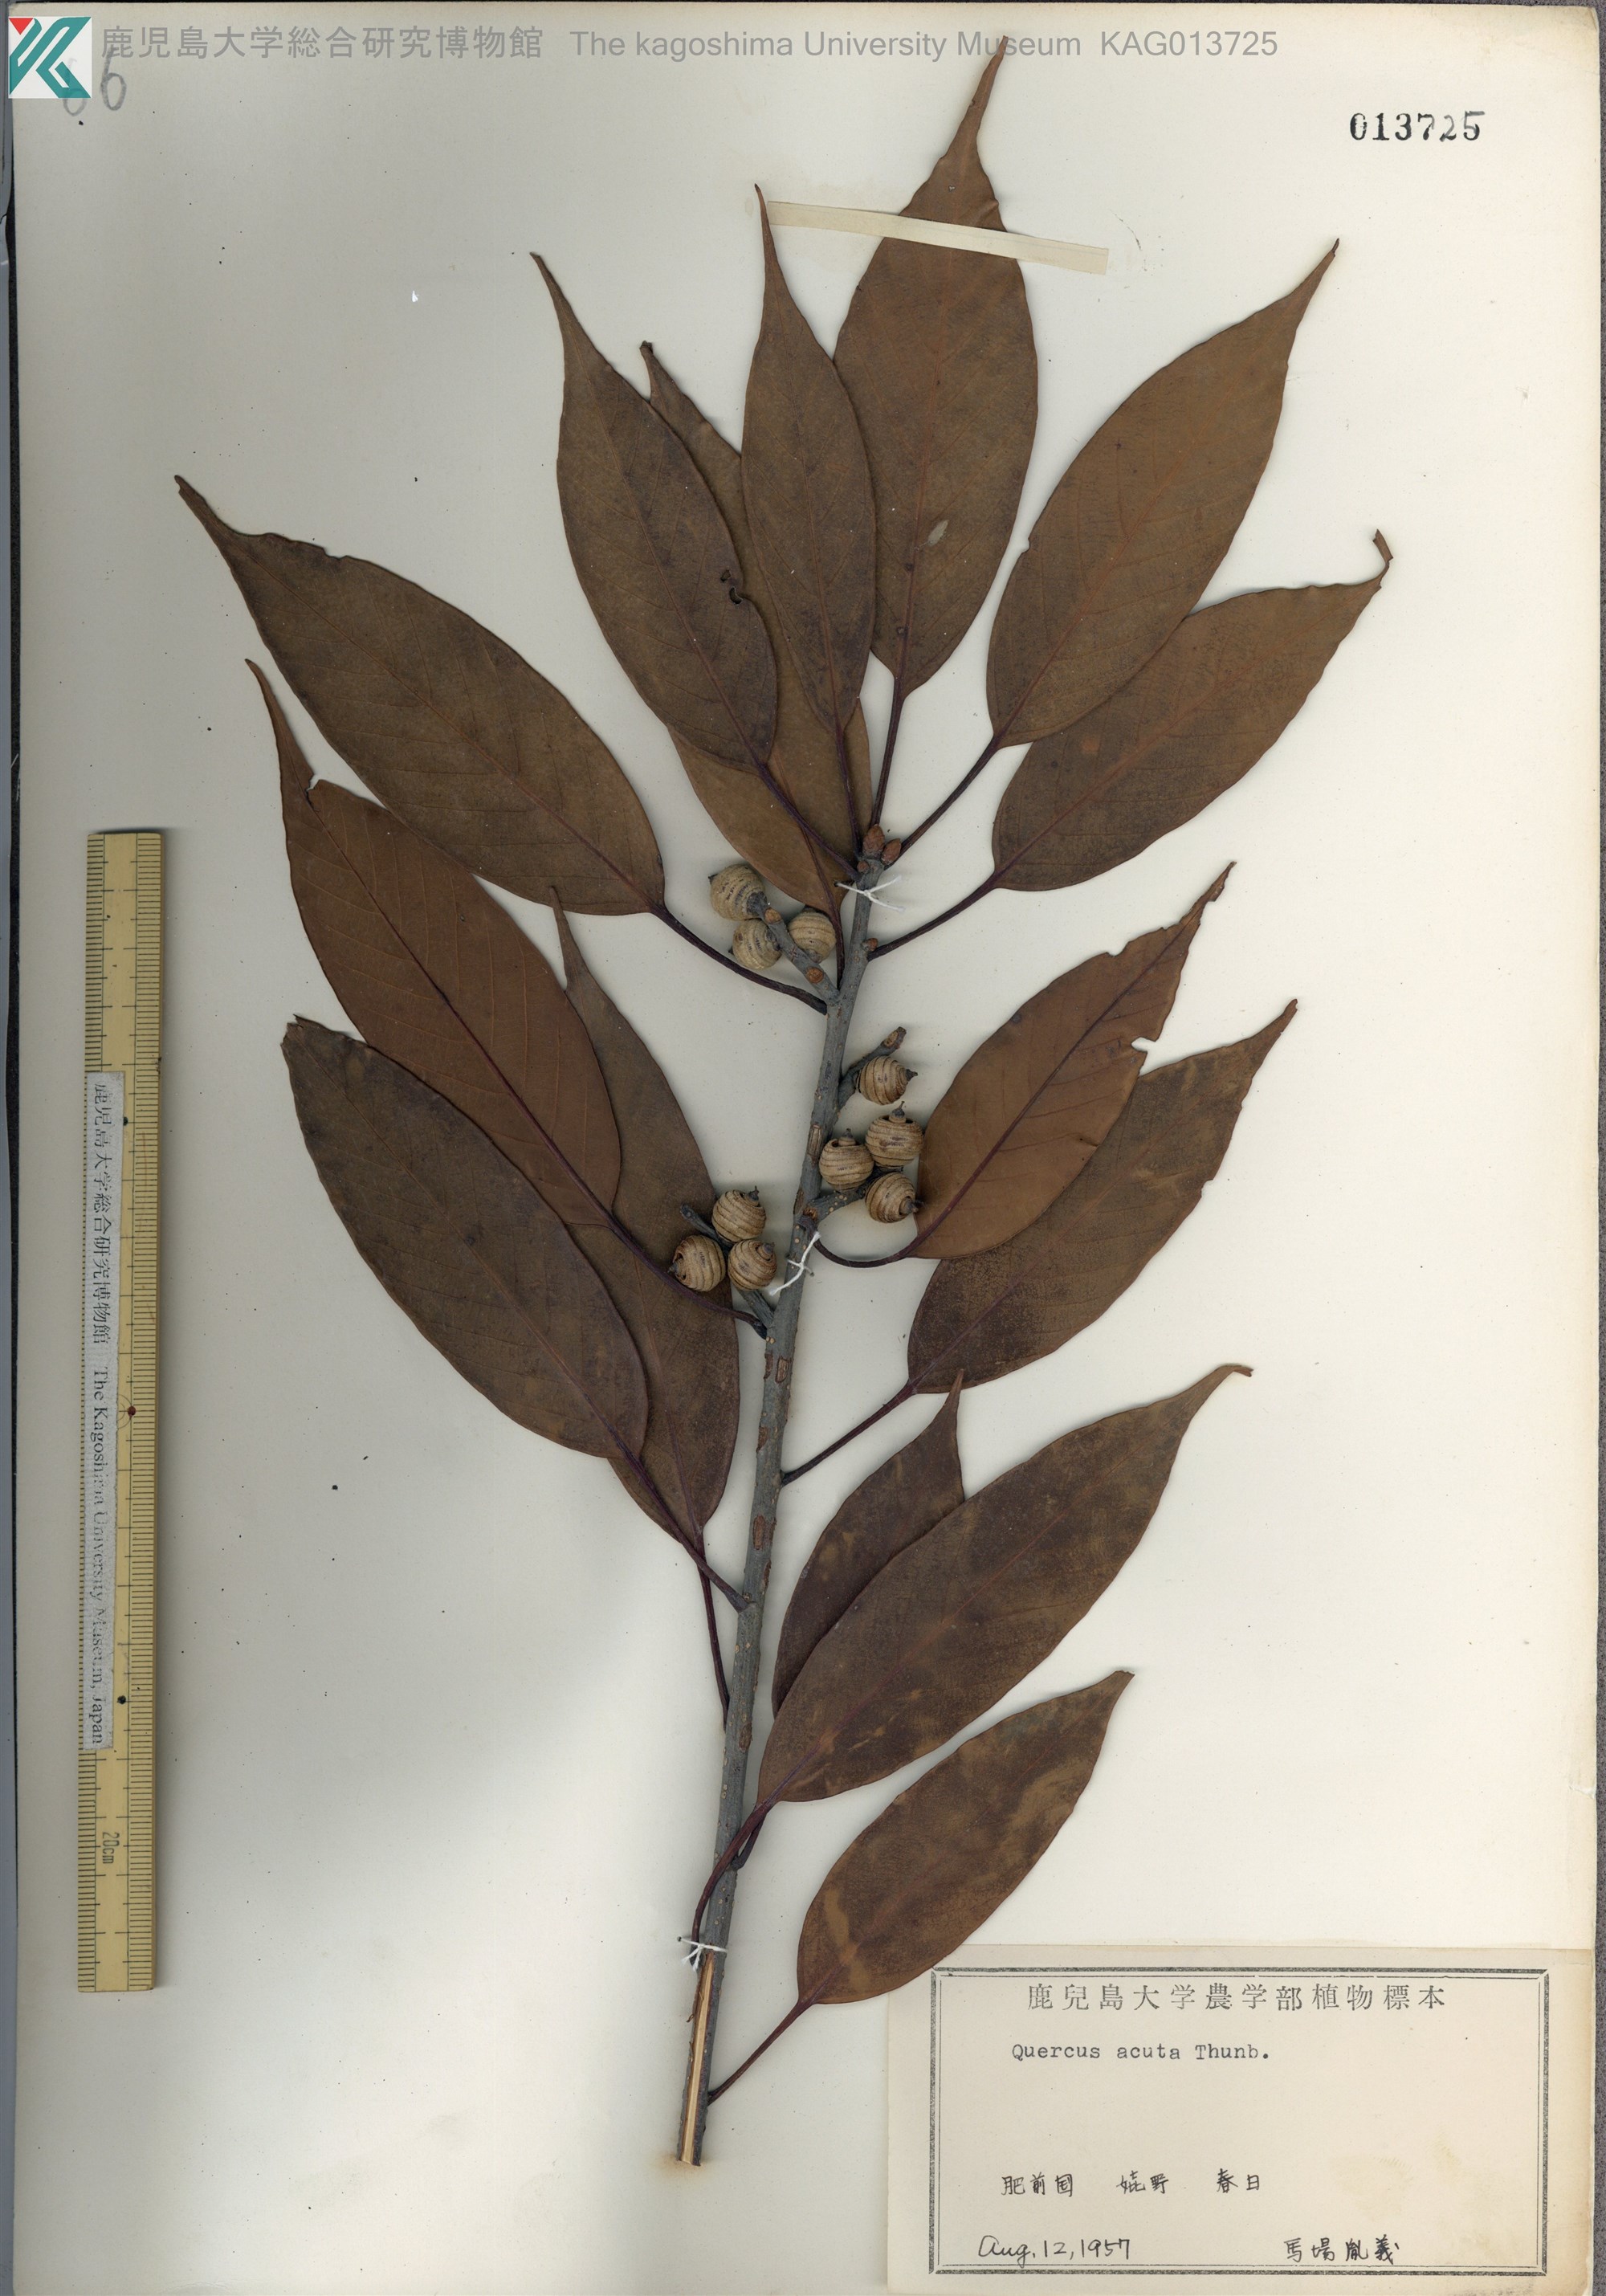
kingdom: Plantae
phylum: Tracheophyta
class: Magnoliopsida
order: Fagales
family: Fagaceae
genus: Quercus
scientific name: Quercus acuta
